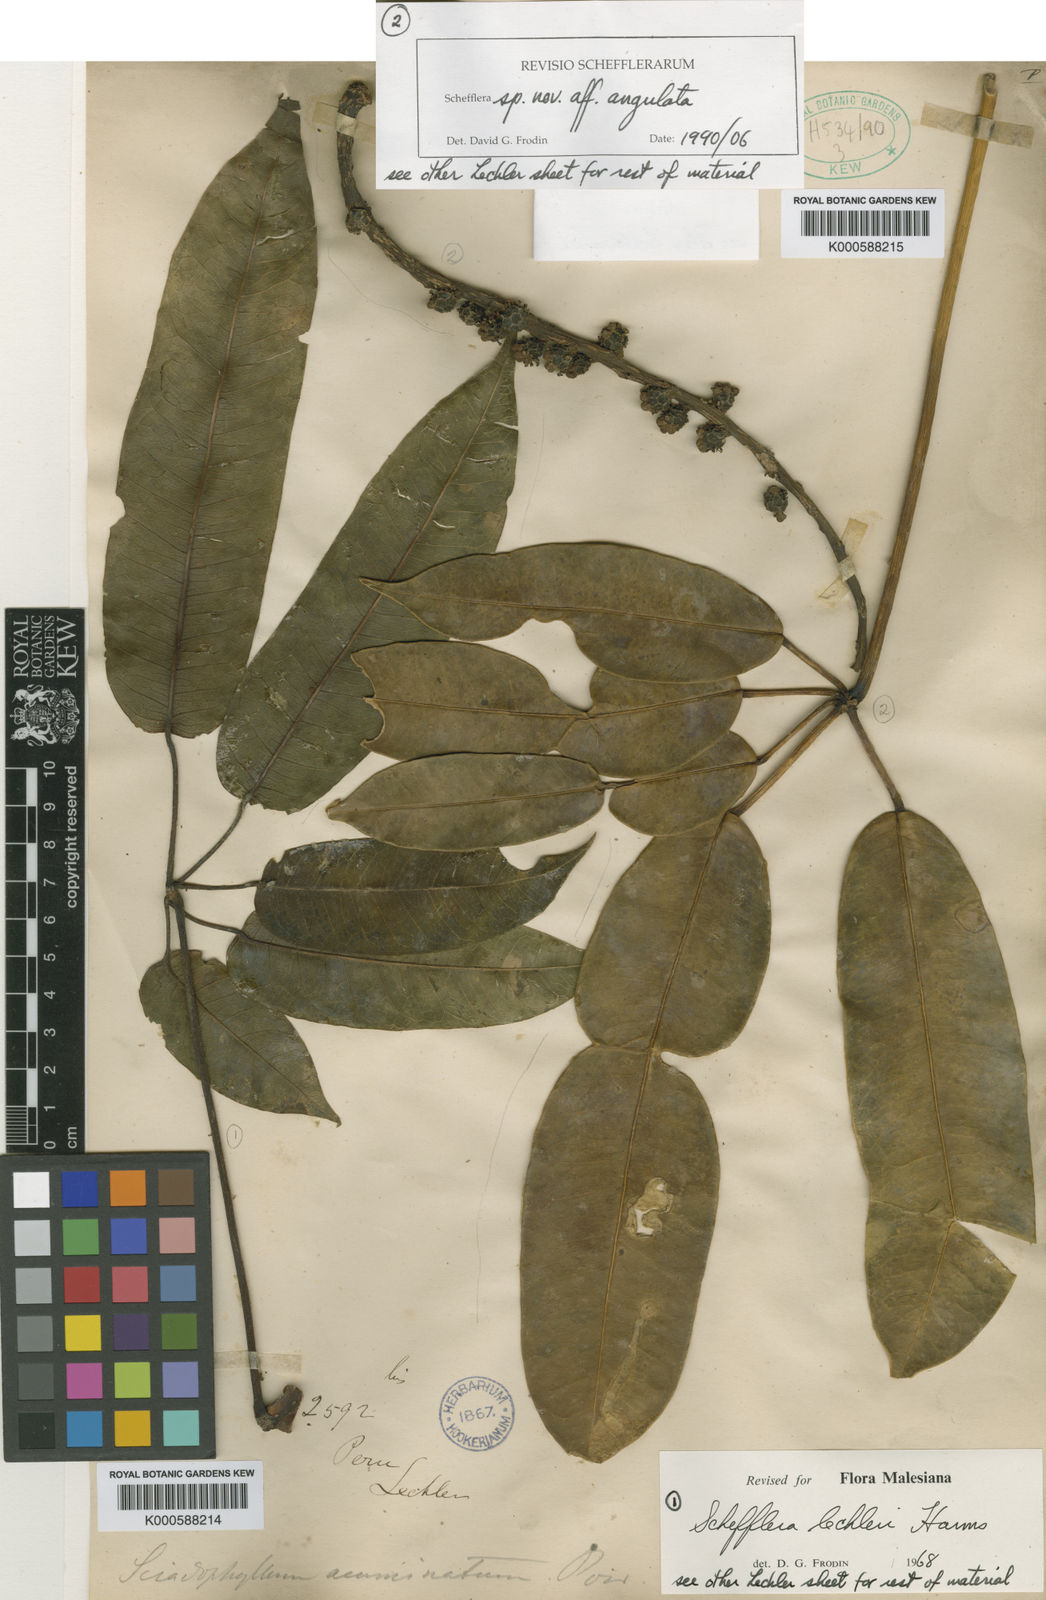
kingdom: Plantae
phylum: Tracheophyta
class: Magnoliopsida
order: Apiales
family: Araliaceae
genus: Sciodaphyllum
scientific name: Sciodaphyllum kuntzei
